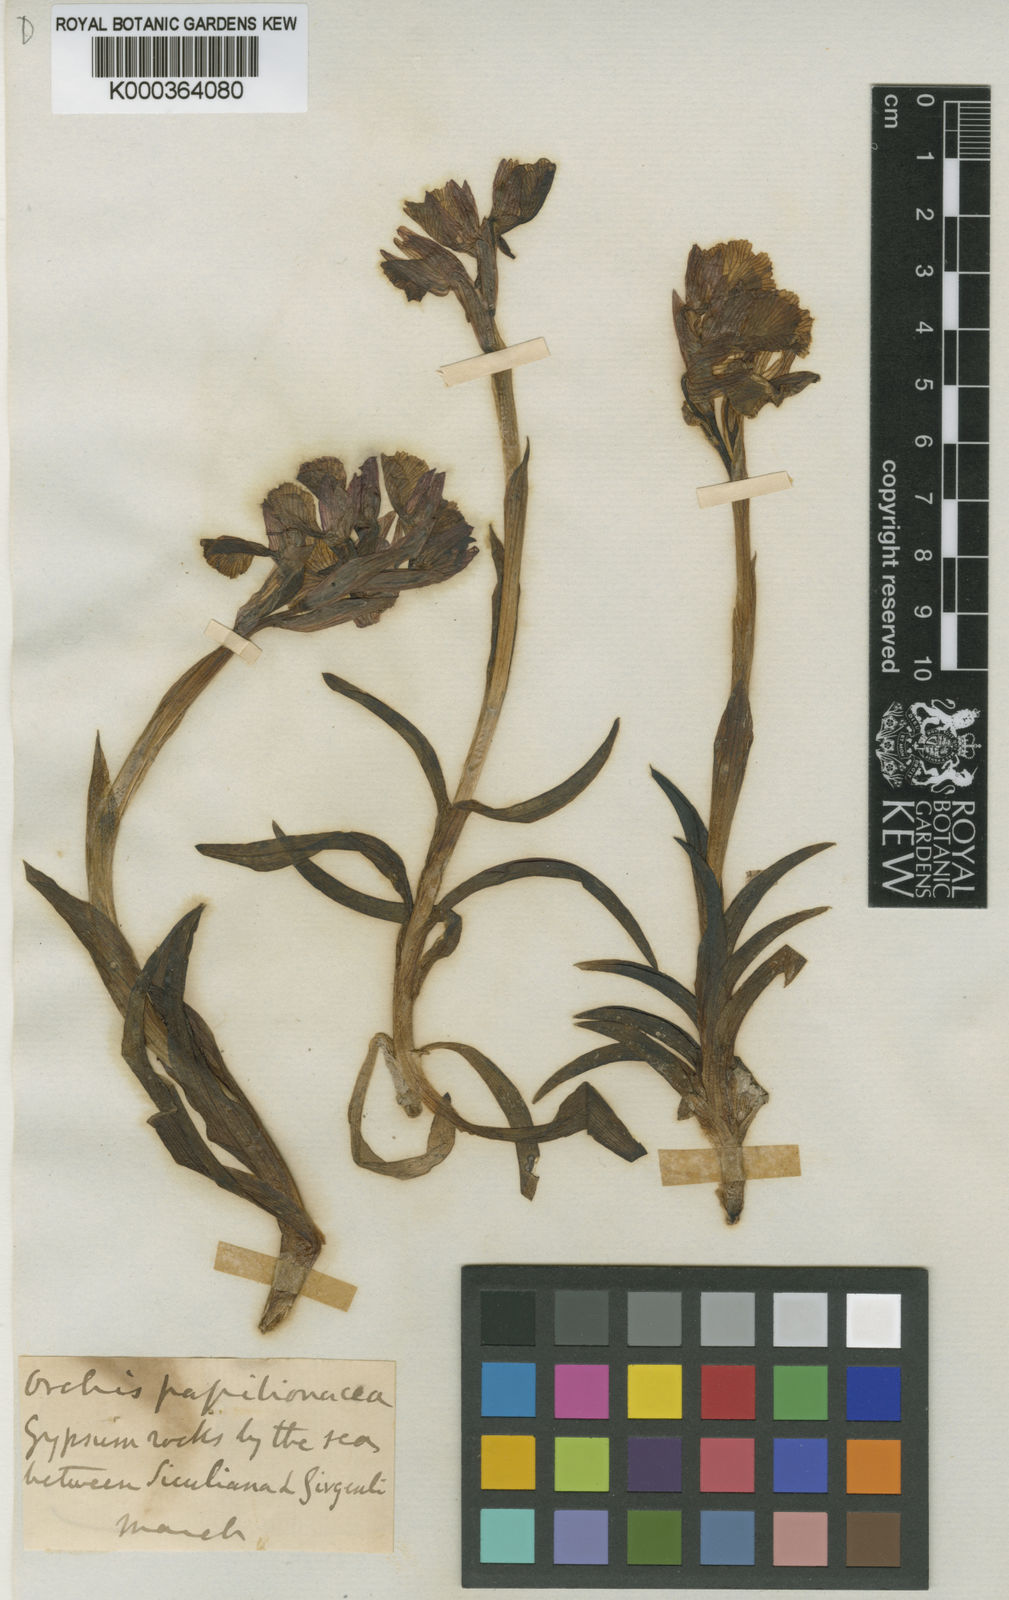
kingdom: Plantae
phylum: Tracheophyta
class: Liliopsida
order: Asparagales
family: Orchidaceae
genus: Anacamptis
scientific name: Anacamptis papilionacea
